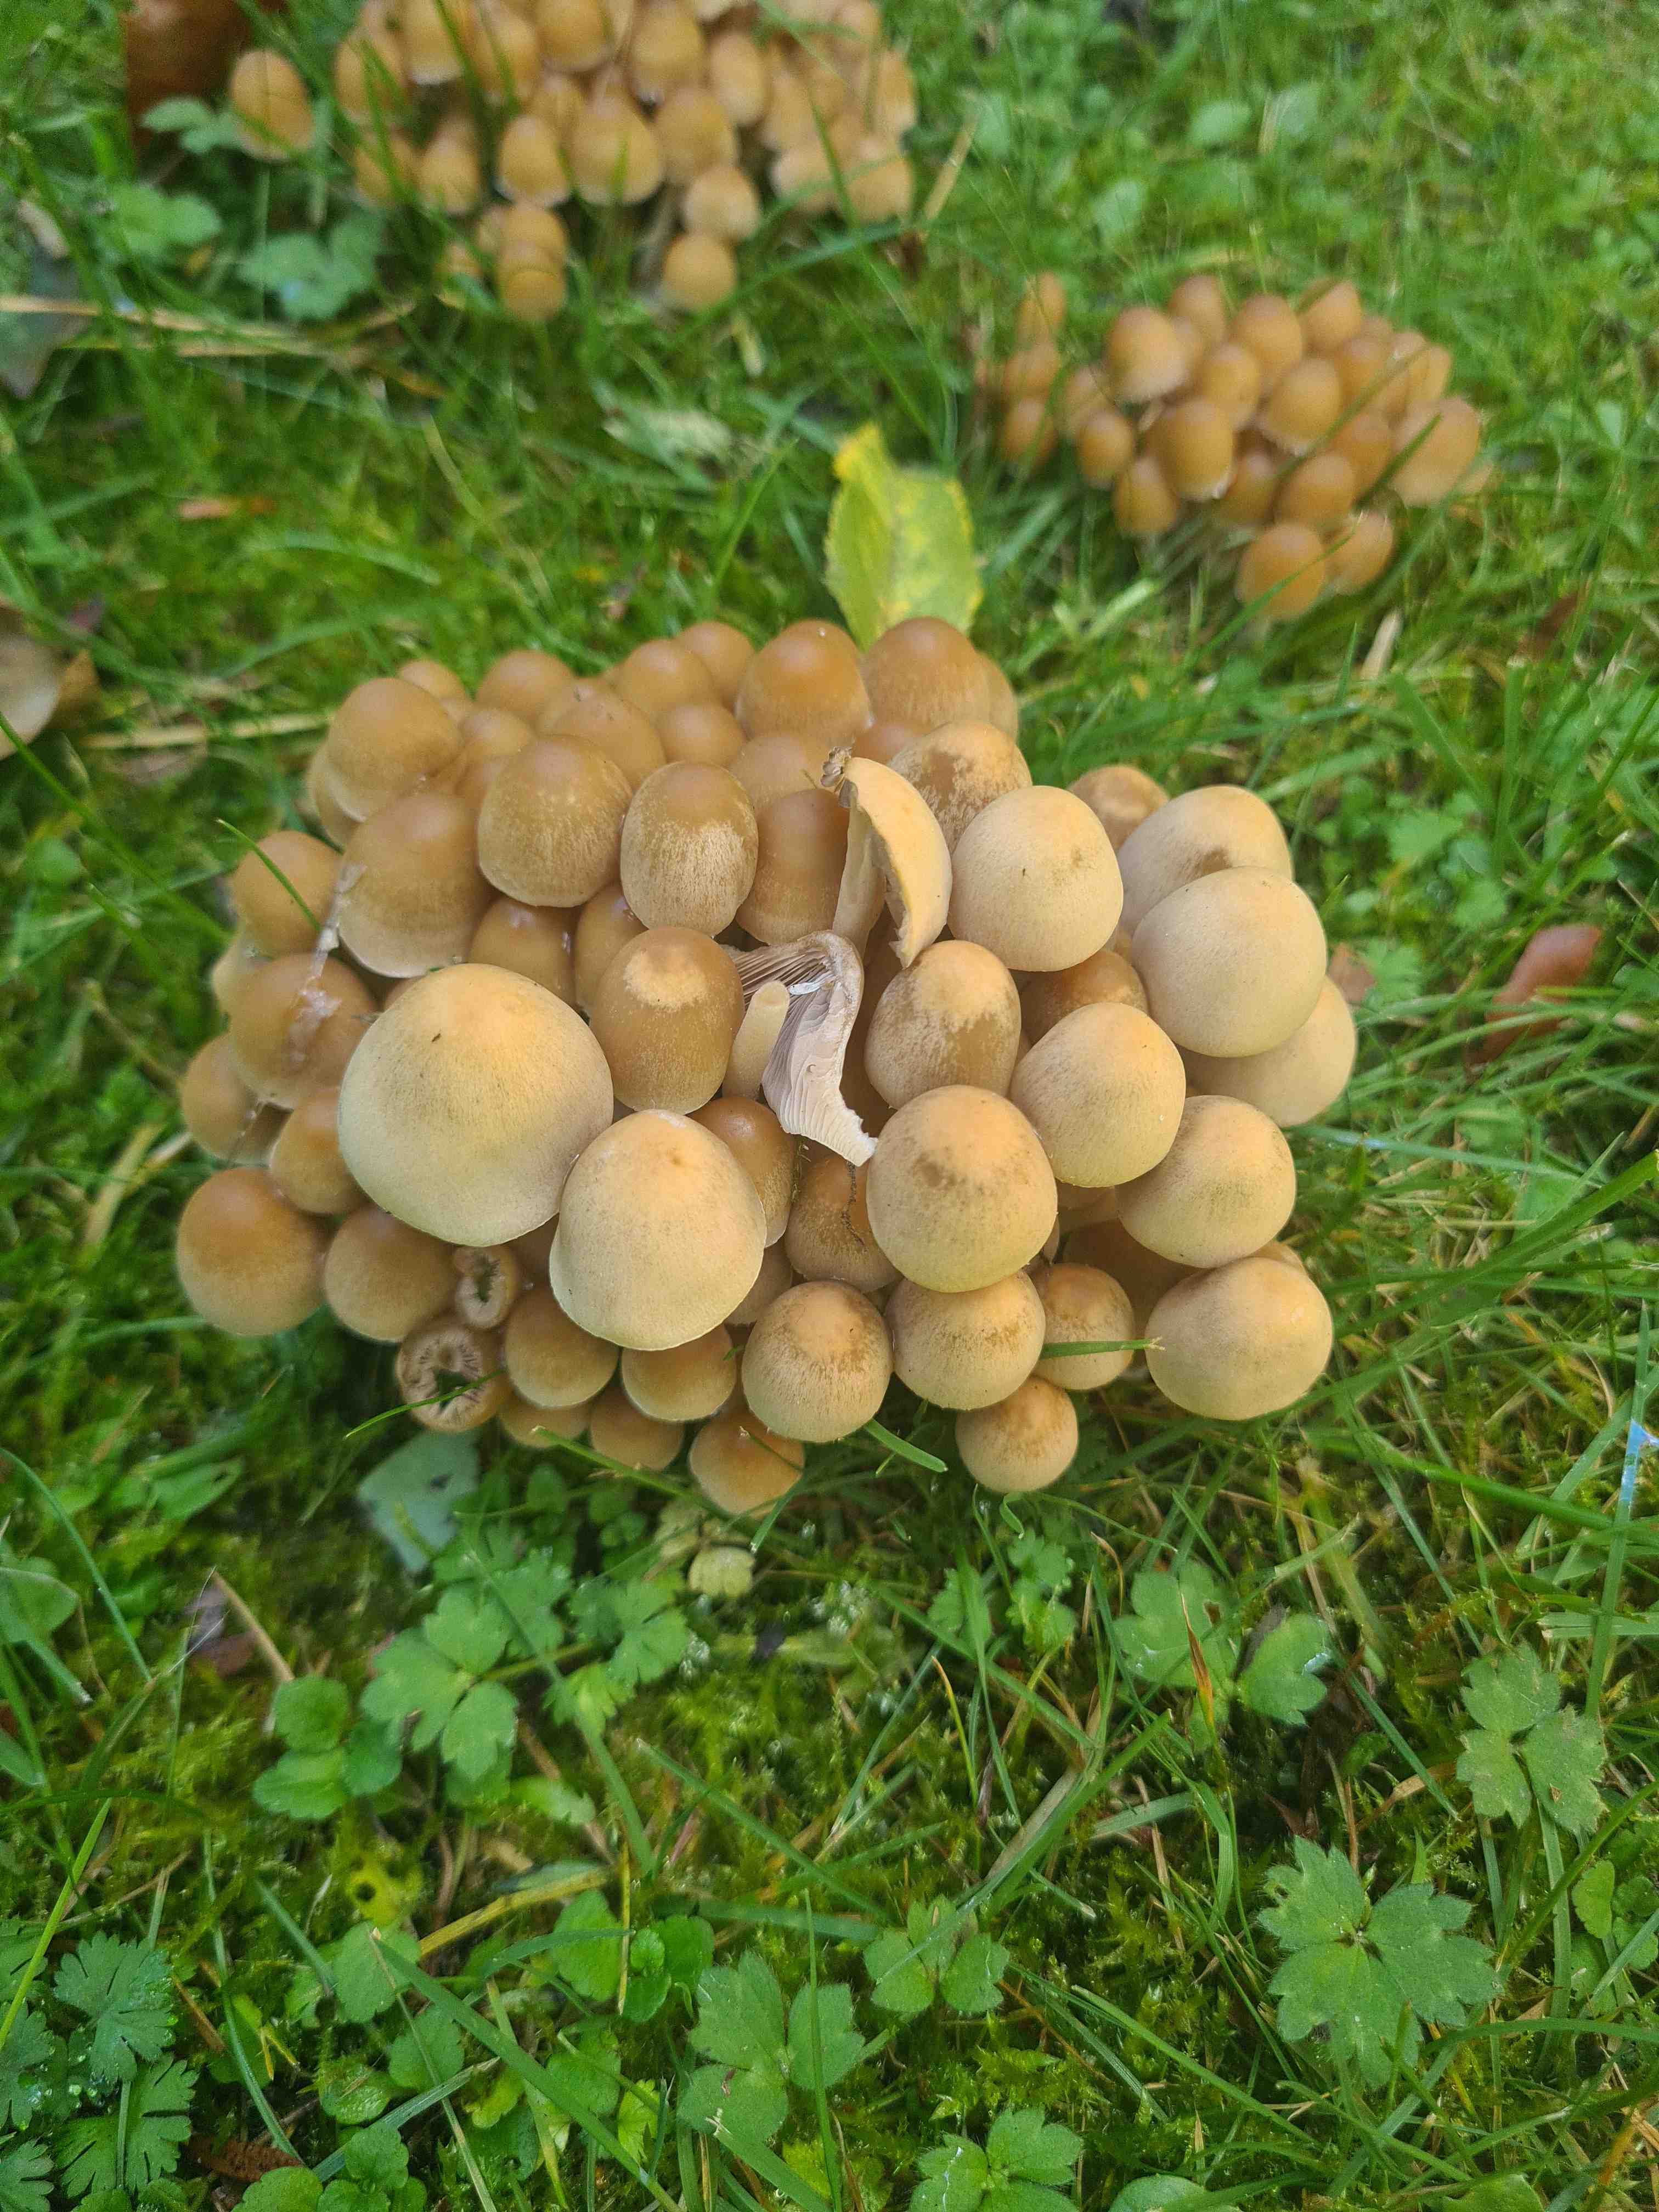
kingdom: Fungi
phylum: Basidiomycota
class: Agaricomycetes
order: Agaricales
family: Psathyrellaceae
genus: Britzelmayria
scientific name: Britzelmayria multipedata
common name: knippe-mørkhat
